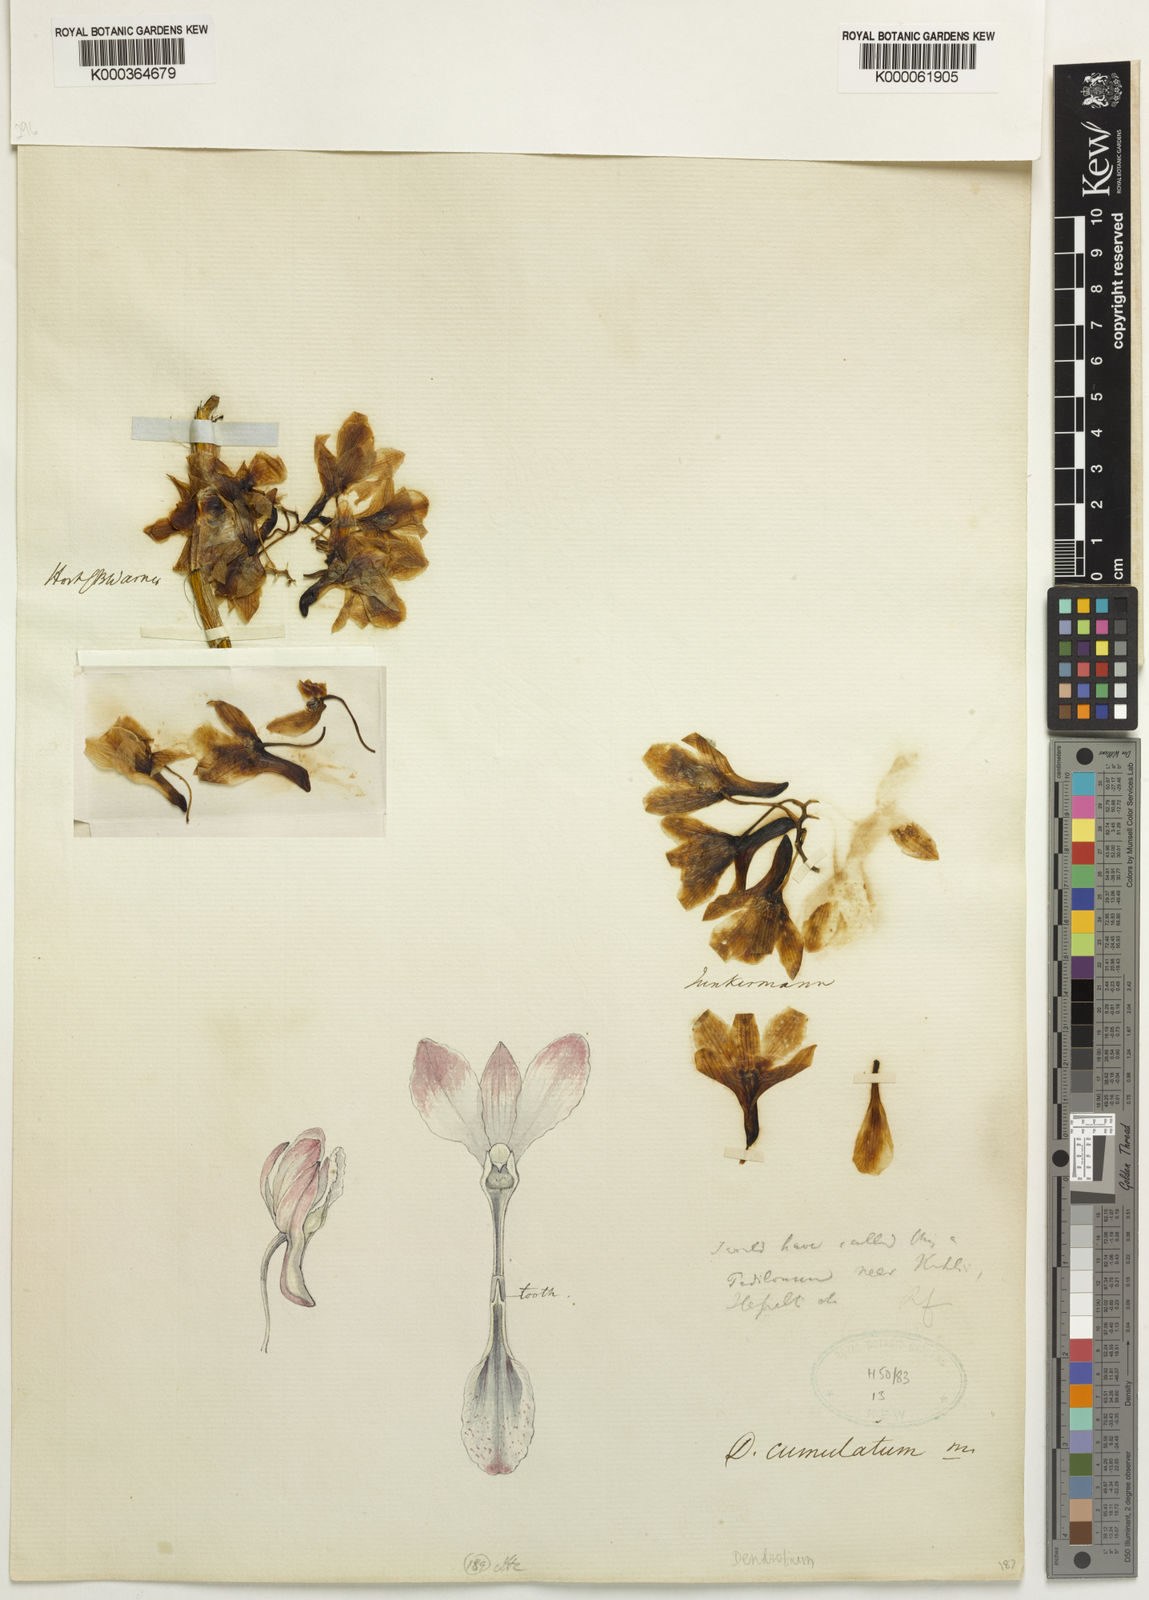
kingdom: Plantae
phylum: Tracheophyta
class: Liliopsida
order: Asparagales
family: Orchidaceae
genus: Dendrobium
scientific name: Dendrobium cumulatum
